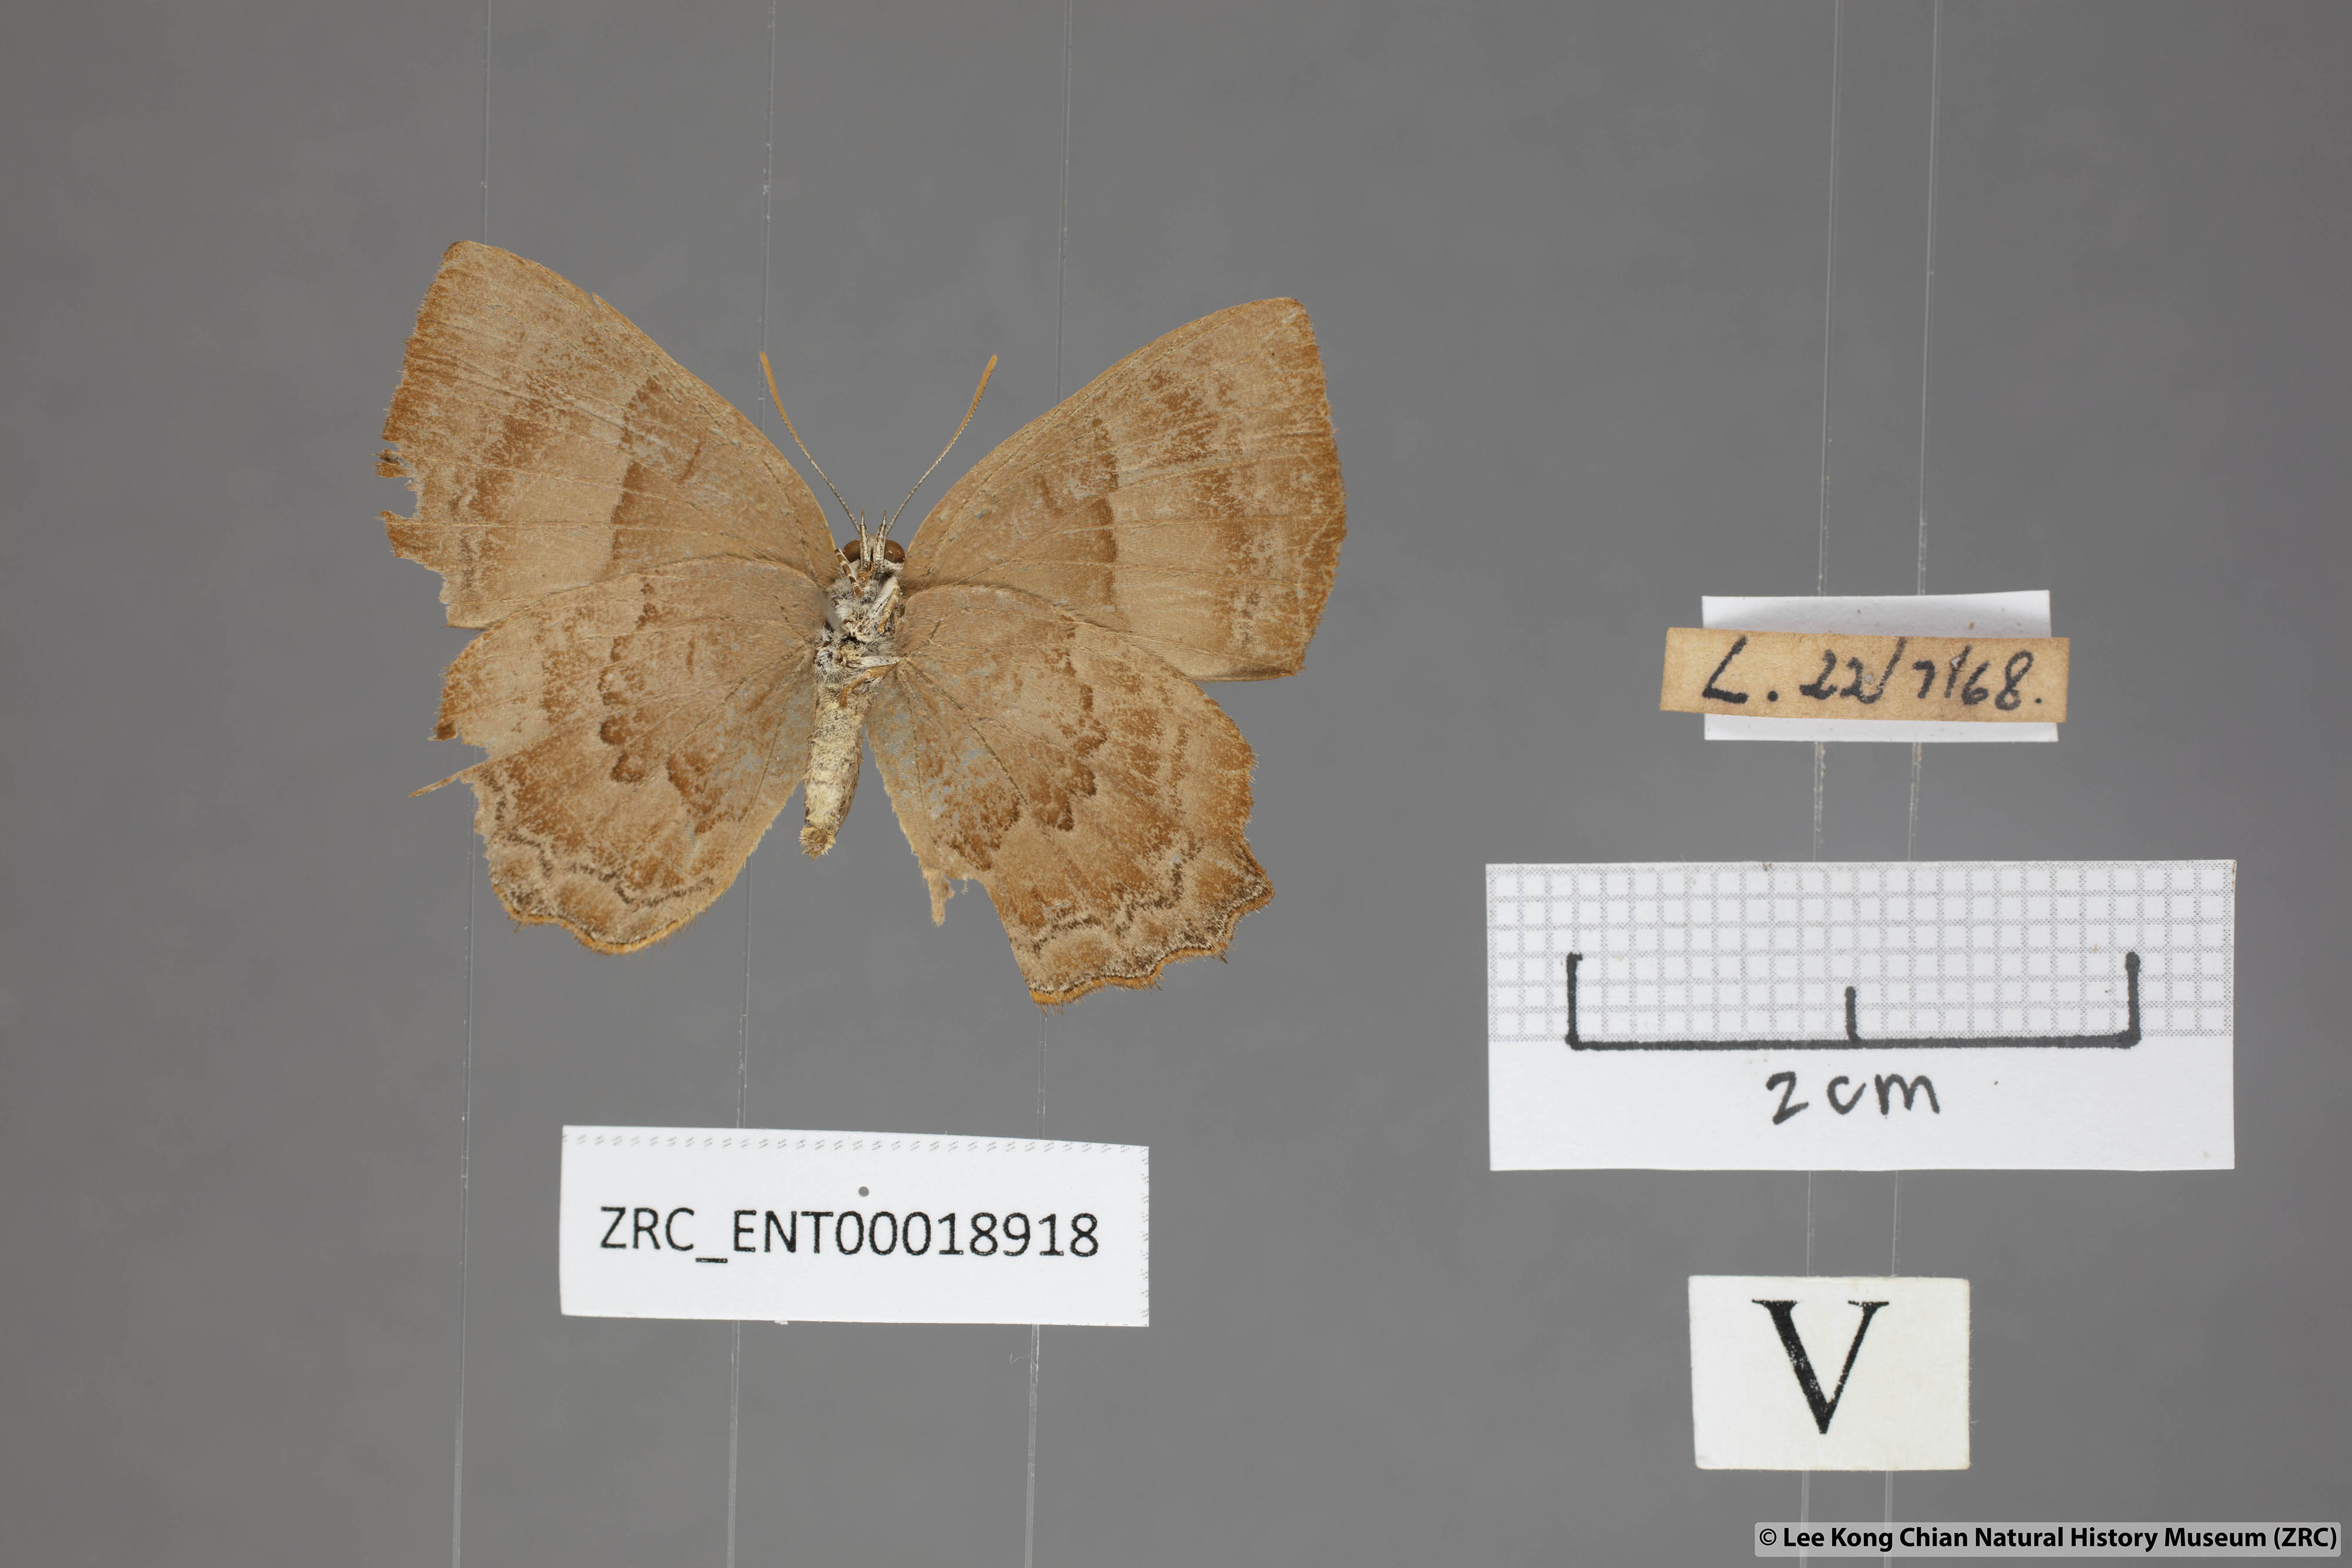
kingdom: Animalia
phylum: Arthropoda
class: Insecta
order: Lepidoptera
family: Lycaenidae
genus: Poritia
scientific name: Poritia proxina
